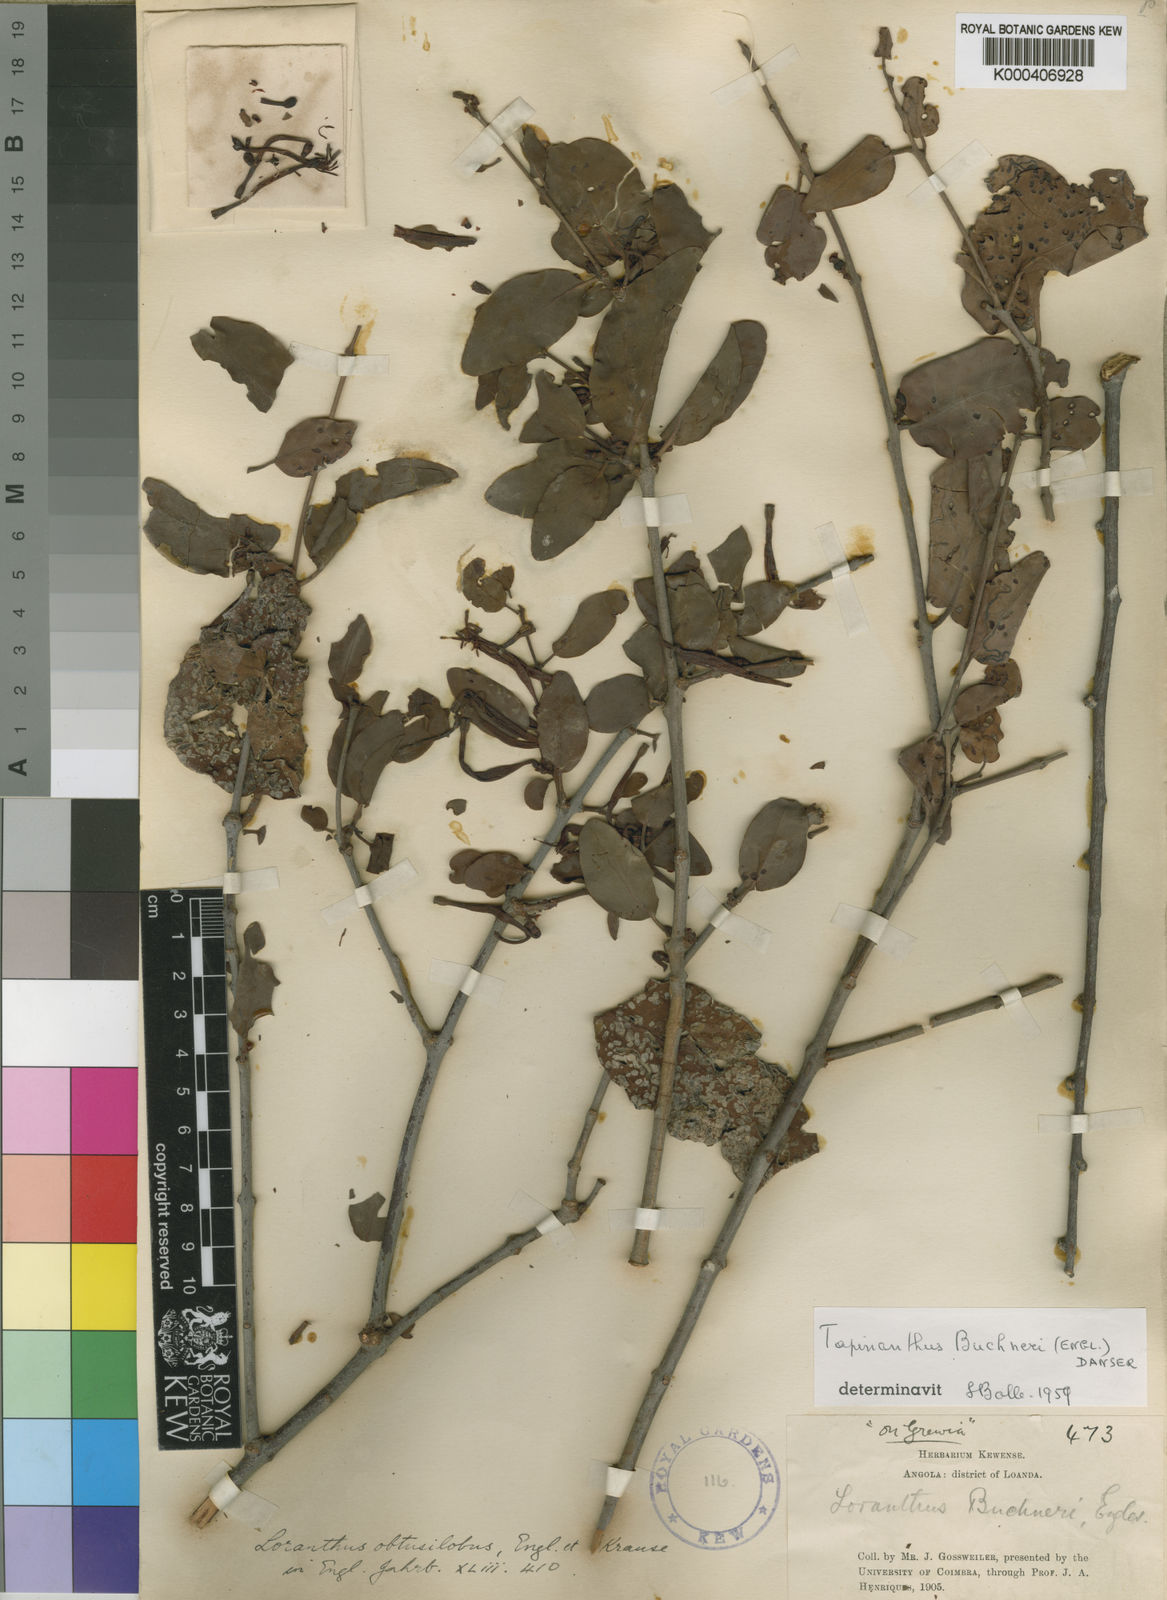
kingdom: Plantae
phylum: Tracheophyta
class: Magnoliopsida
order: Santalales
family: Loranthaceae
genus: Tapinanthus
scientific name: Tapinanthus buchneri
